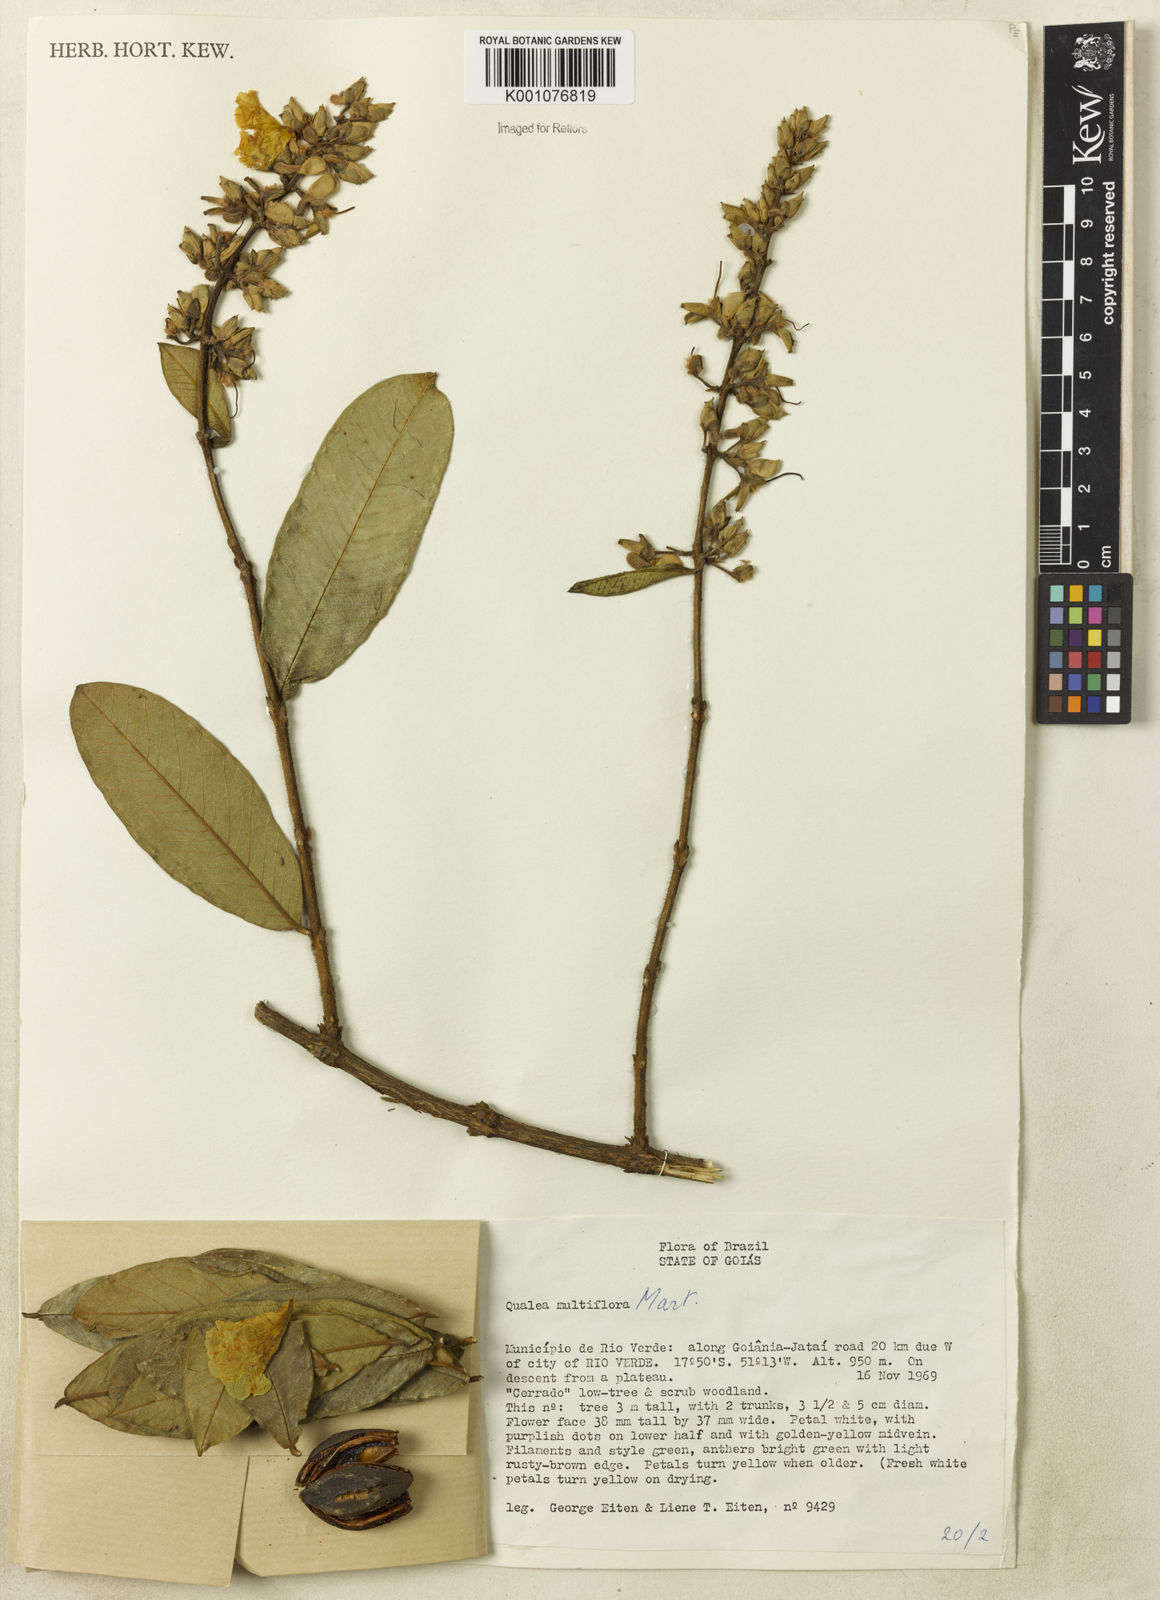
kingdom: Plantae
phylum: Tracheophyta
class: Magnoliopsida
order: Myrtales
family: Vochysiaceae
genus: Qualea
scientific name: Qualea multiflora
